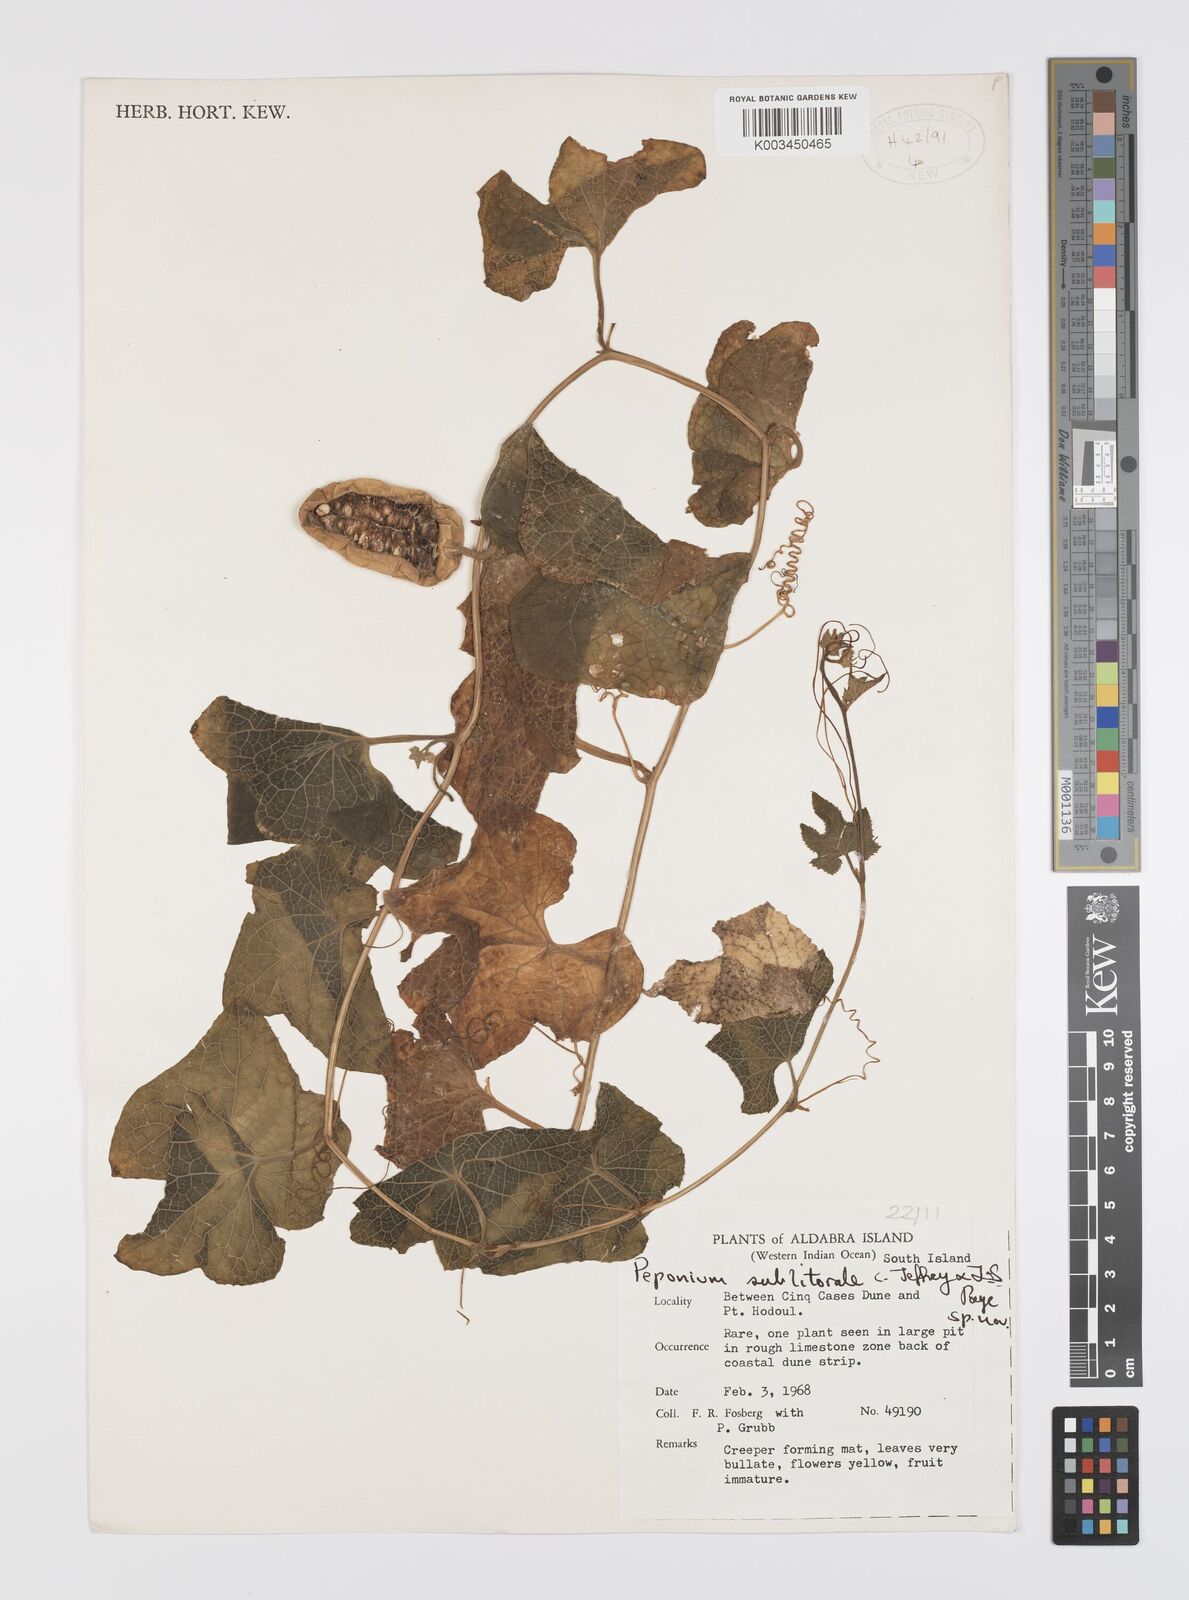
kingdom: Plantae
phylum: Tracheophyta
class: Magnoliopsida
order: Cucurbitales
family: Cucurbitaceae
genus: Peponium
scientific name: Peponium sublitorale
